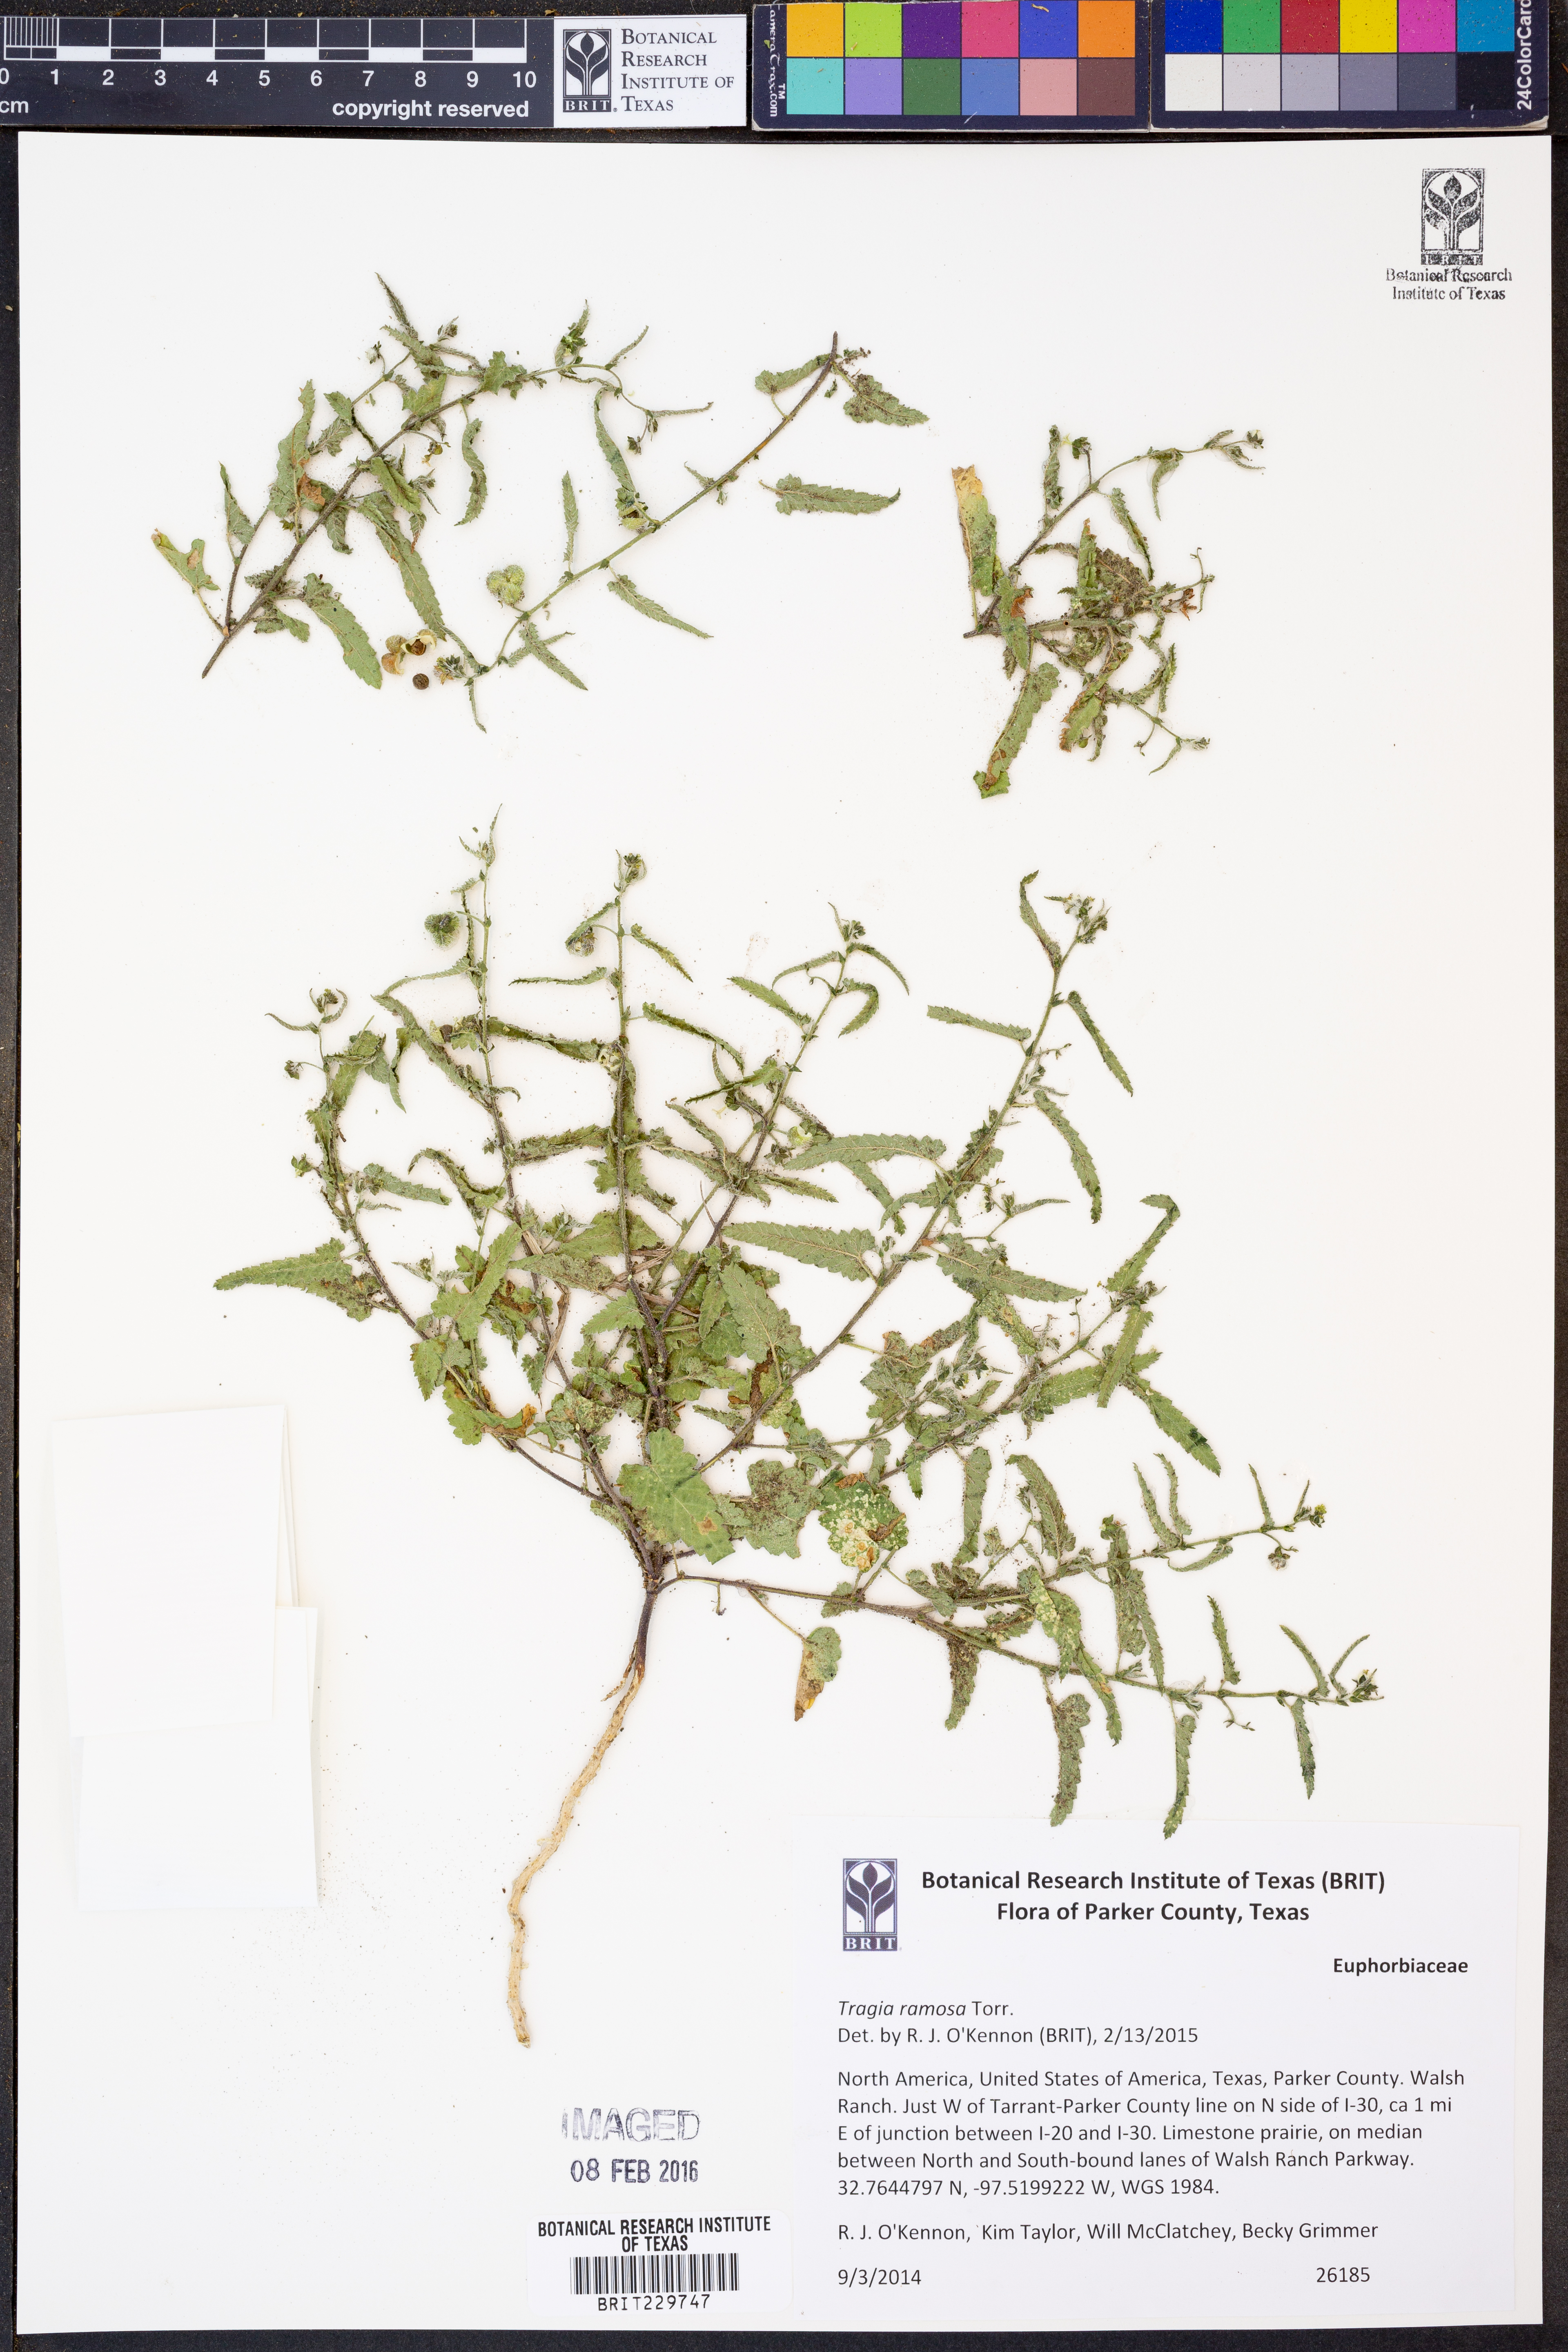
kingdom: Plantae
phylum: Tracheophyta
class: Magnoliopsida
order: Malpighiales
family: Euphorbiaceae
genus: Tragia
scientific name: Tragia ramosa
